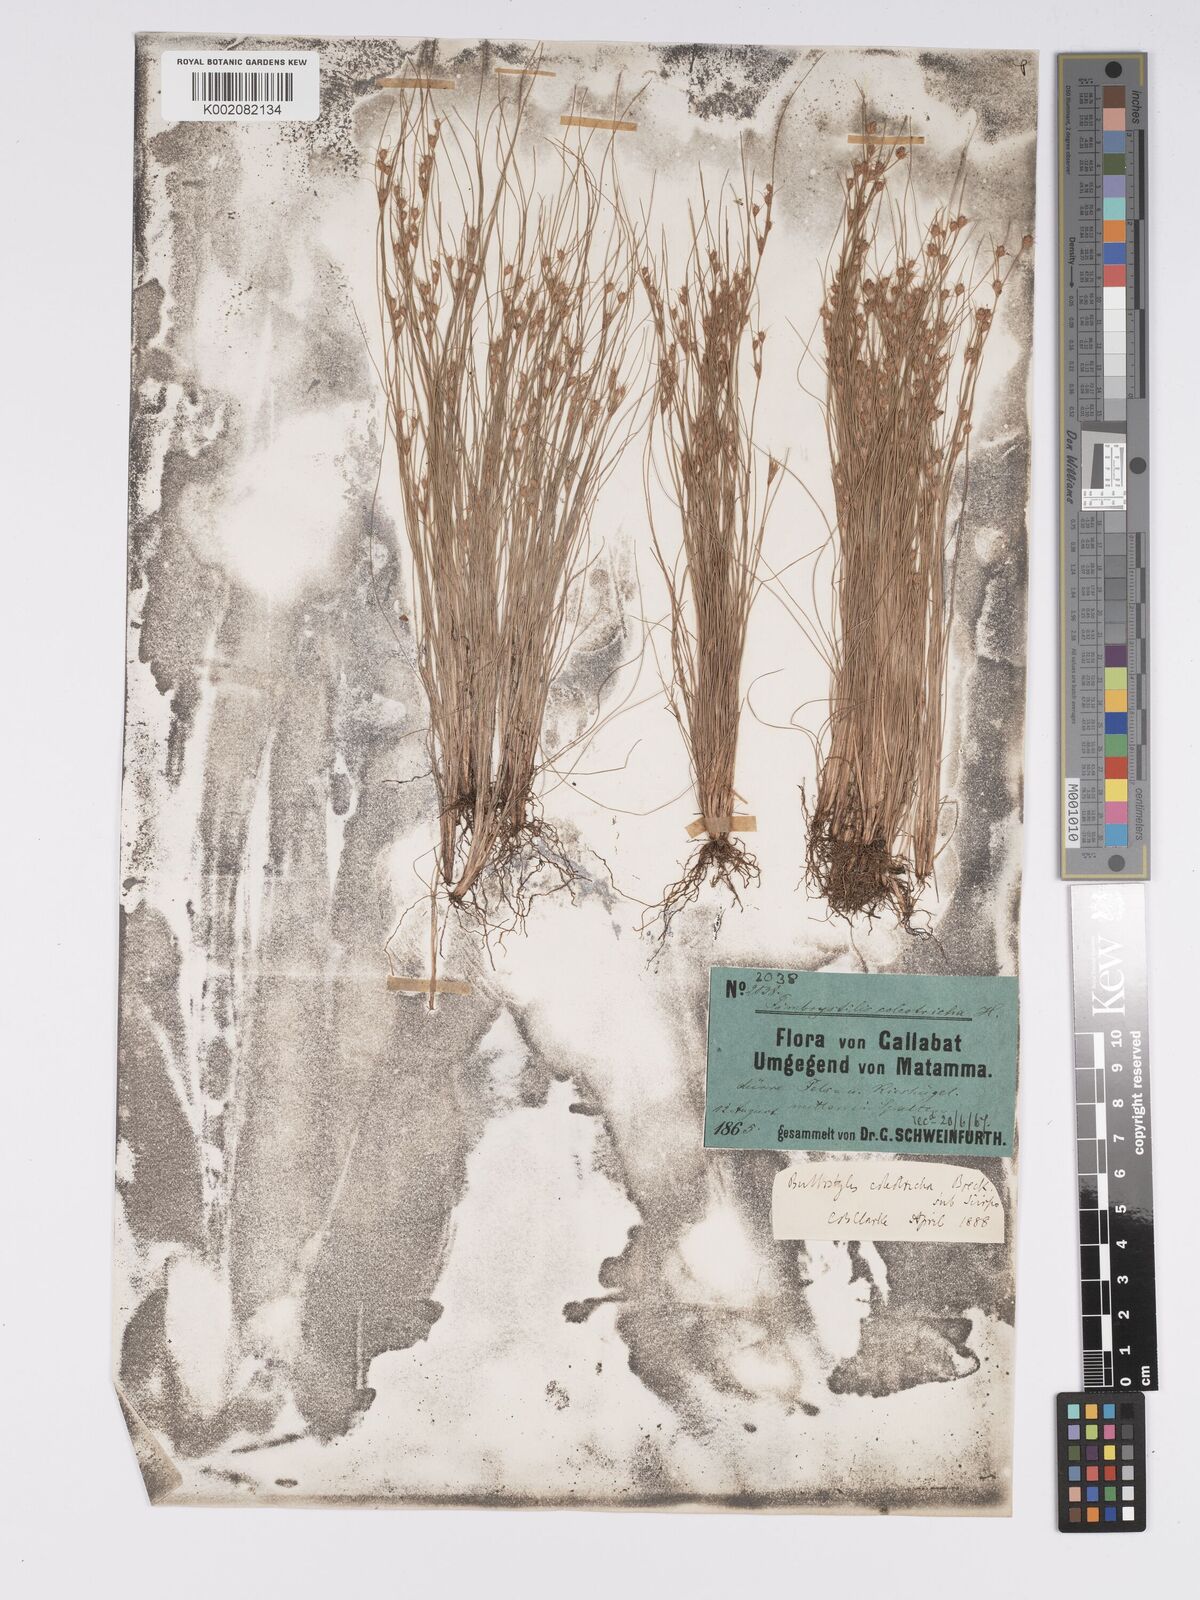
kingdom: Plantae
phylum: Tracheophyta
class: Liliopsida
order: Poales
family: Cyperaceae
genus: Bulbostylis
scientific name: Bulbostylis coleotricha
